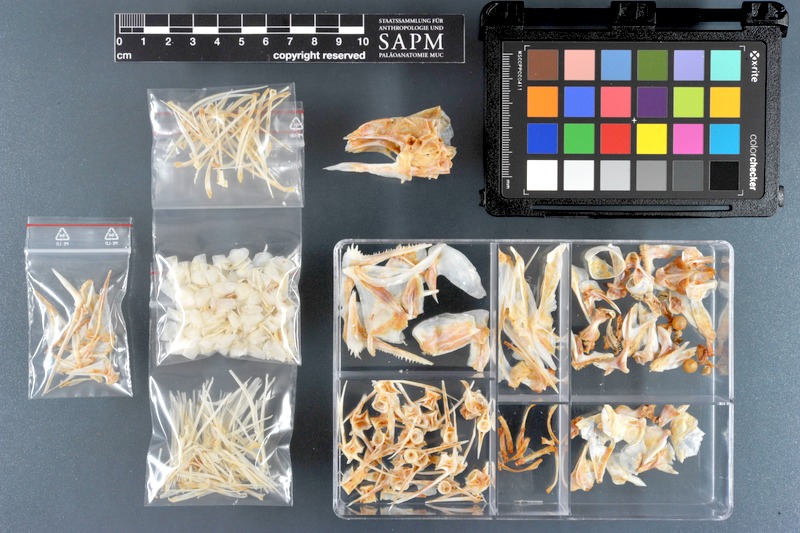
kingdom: Animalia
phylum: Chordata
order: Perciformes
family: Nemipteridae
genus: Scolopsis
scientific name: Scolopsis taeniata
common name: Blackstreaked monocle bream
